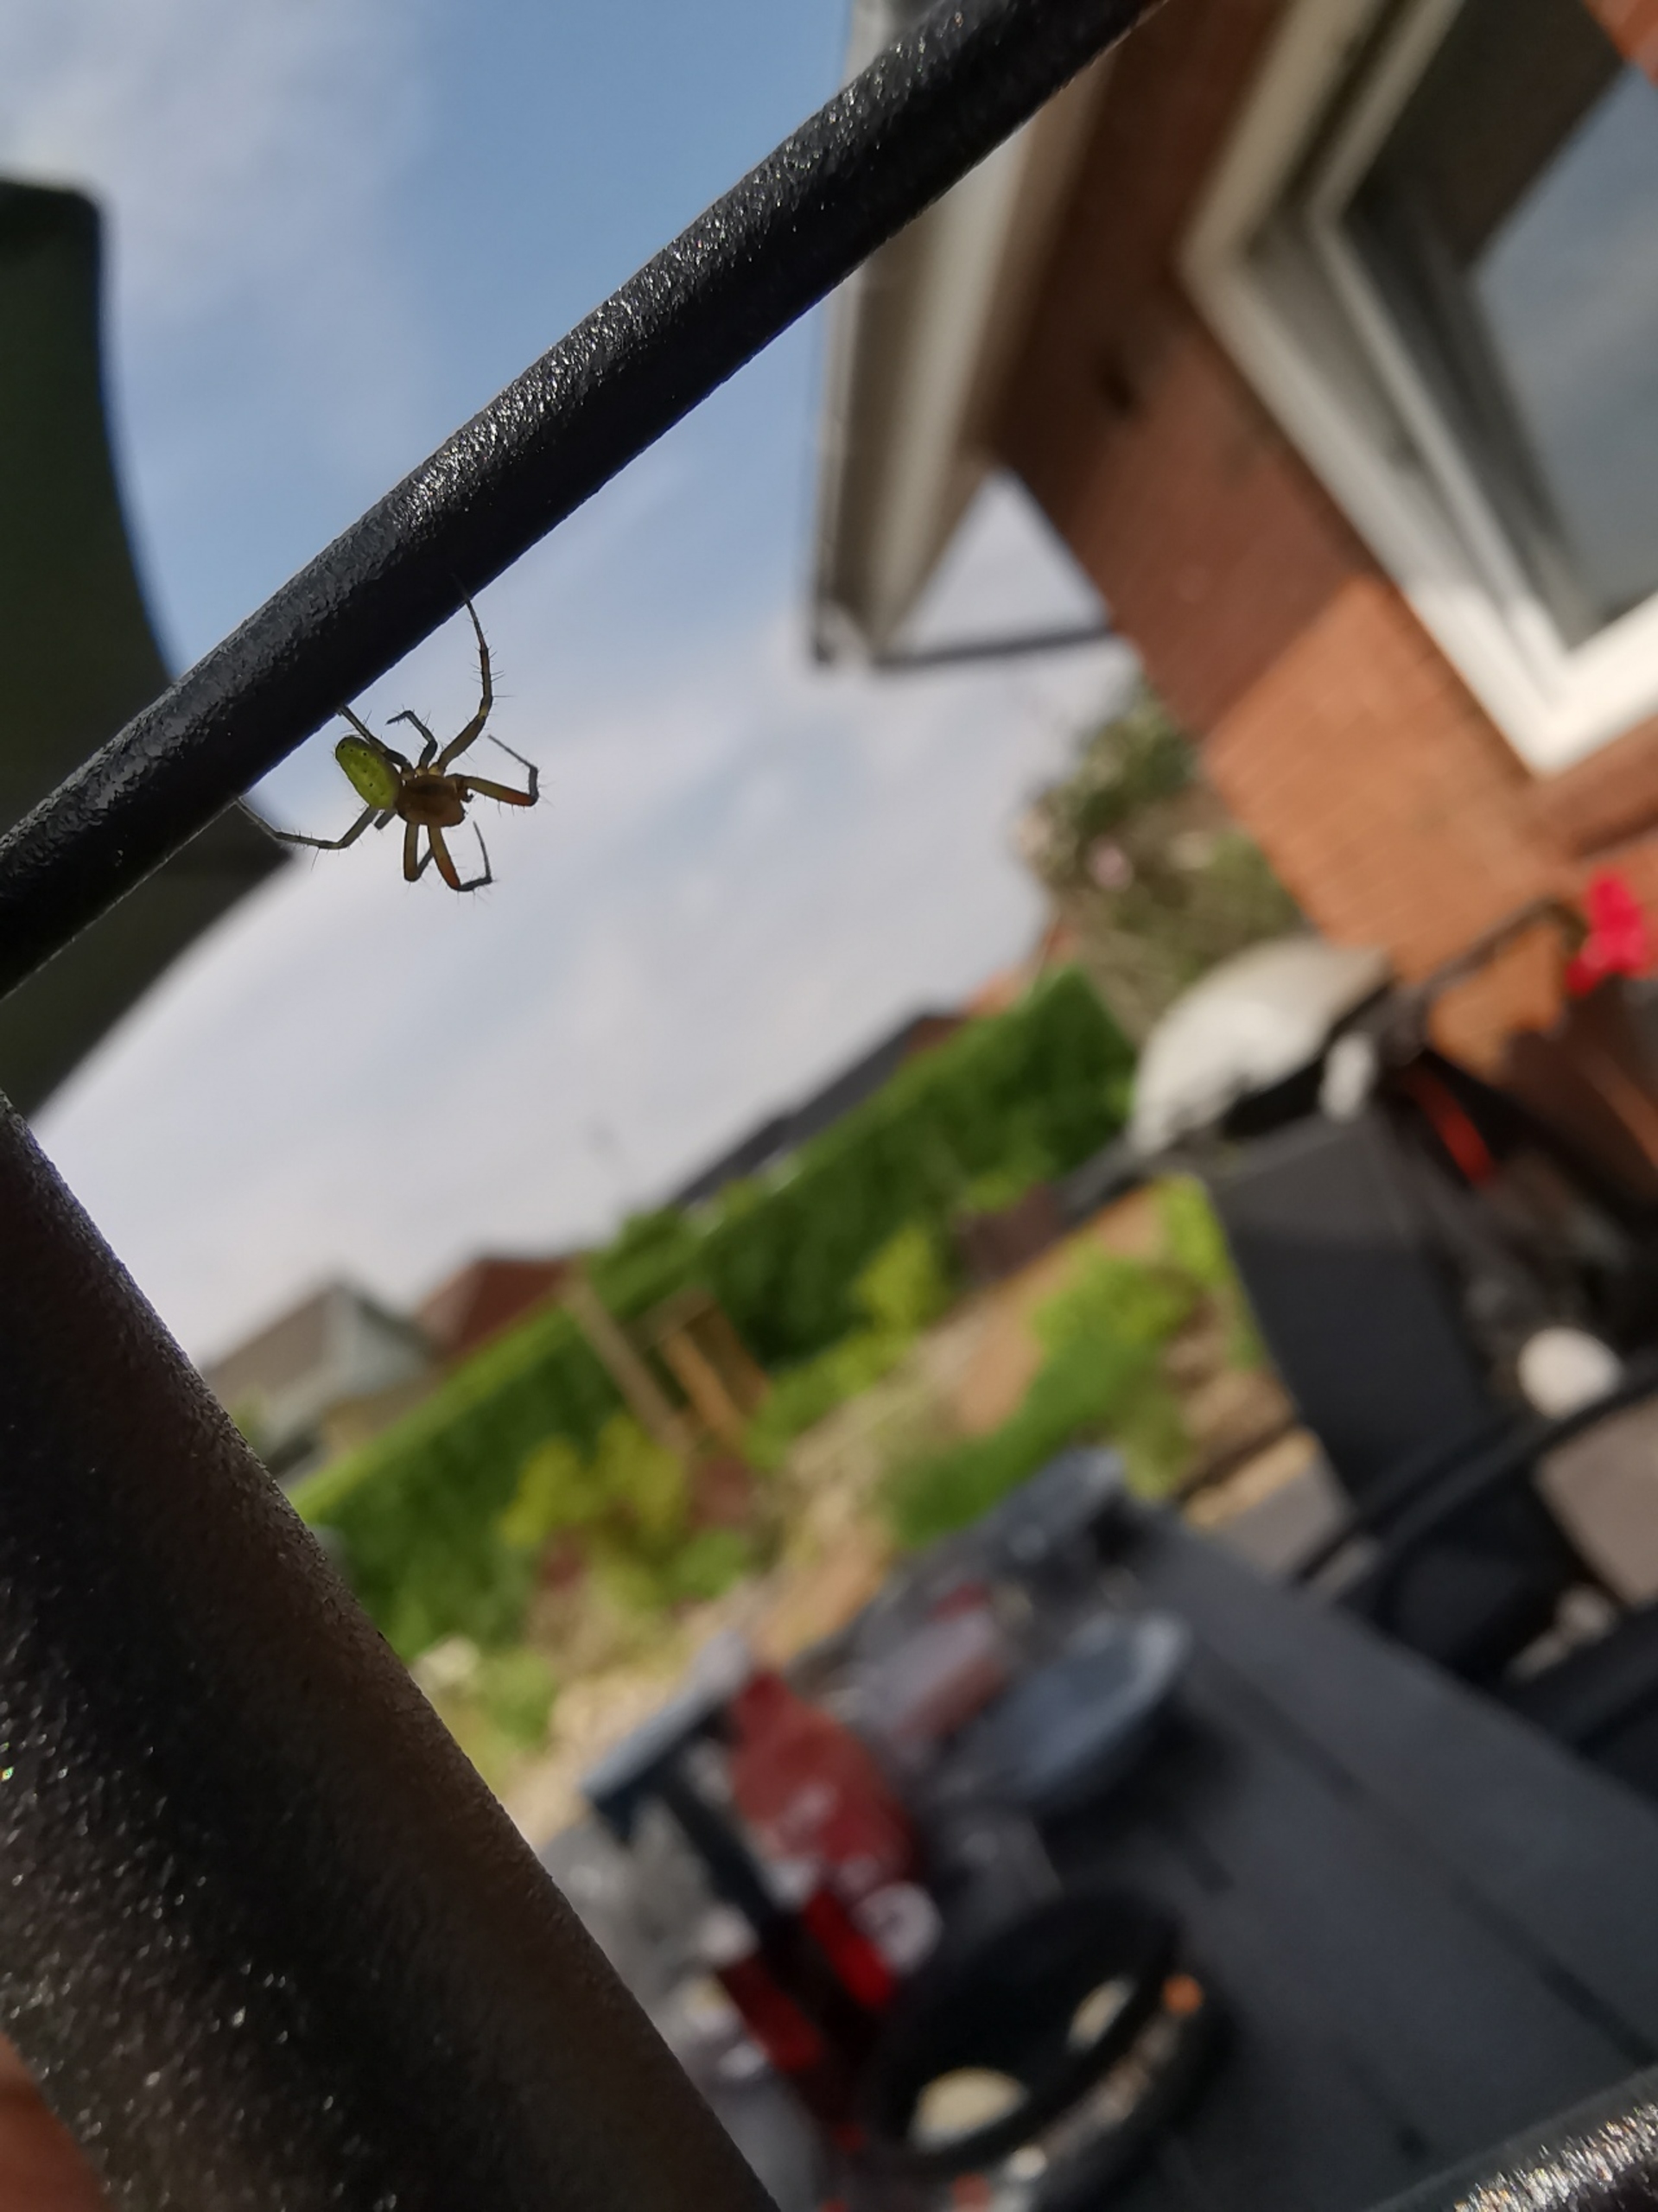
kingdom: Animalia
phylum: Arthropoda
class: Arachnida
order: Araneae
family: Araneidae
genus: Araniella
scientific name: Araniella
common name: Agurkeedderkopslægten
